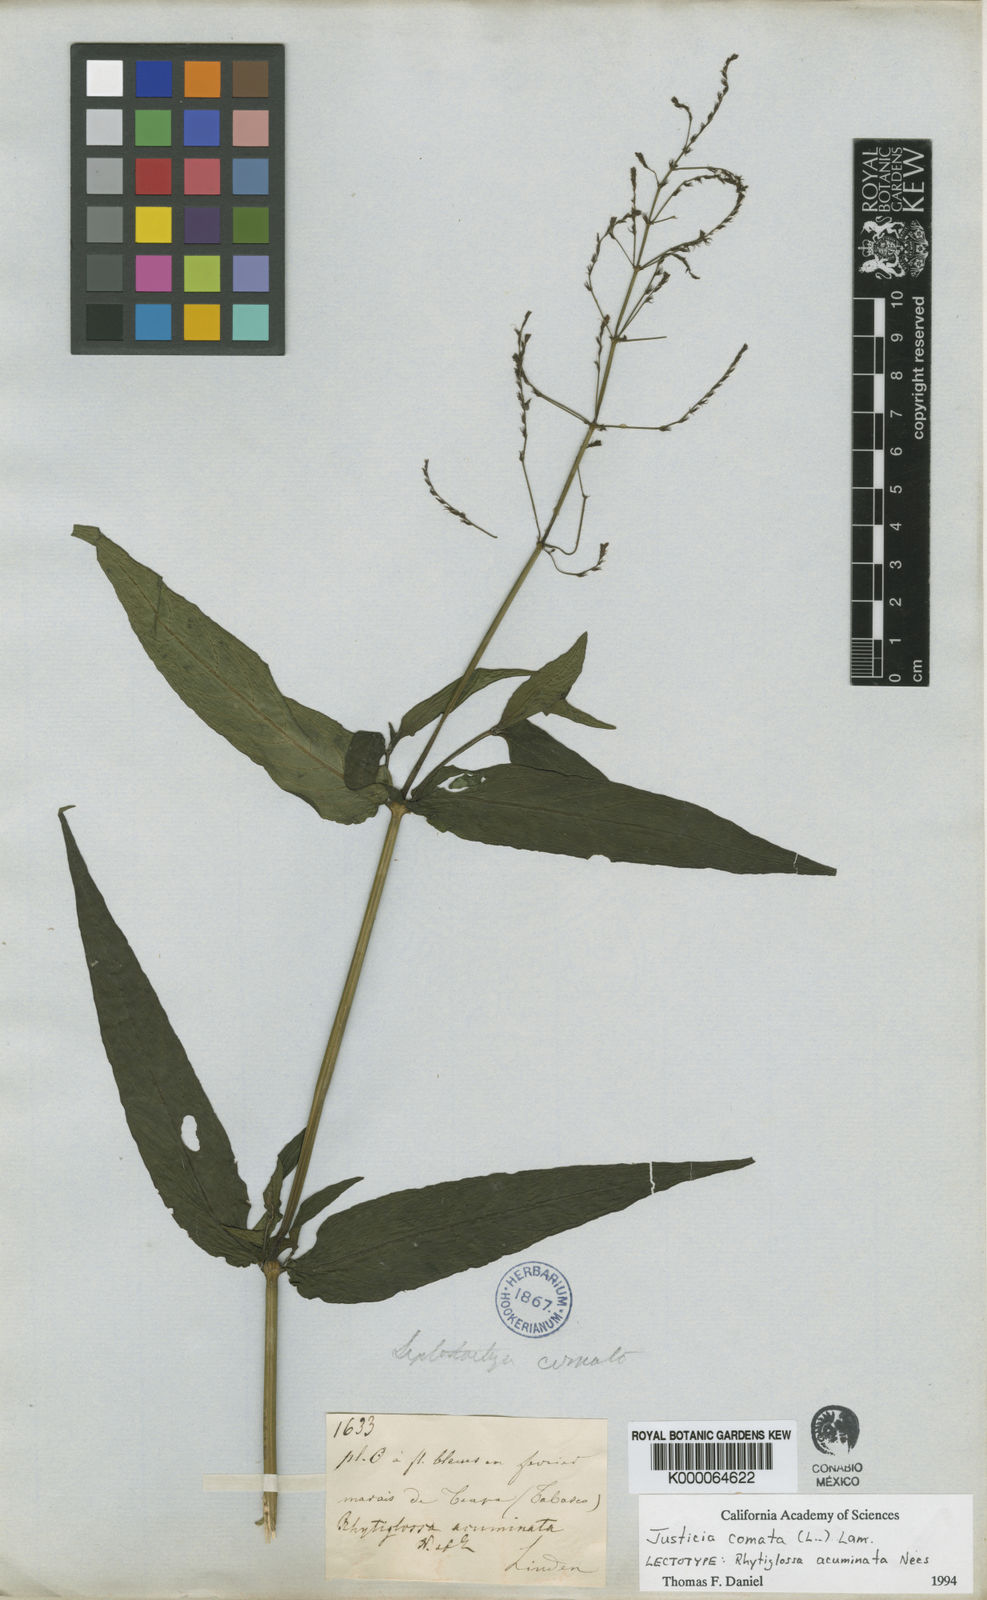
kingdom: Plantae
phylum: Tracheophyta
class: Magnoliopsida
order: Lamiales
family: Acanthaceae
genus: Dianthera
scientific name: Dianthera comata
